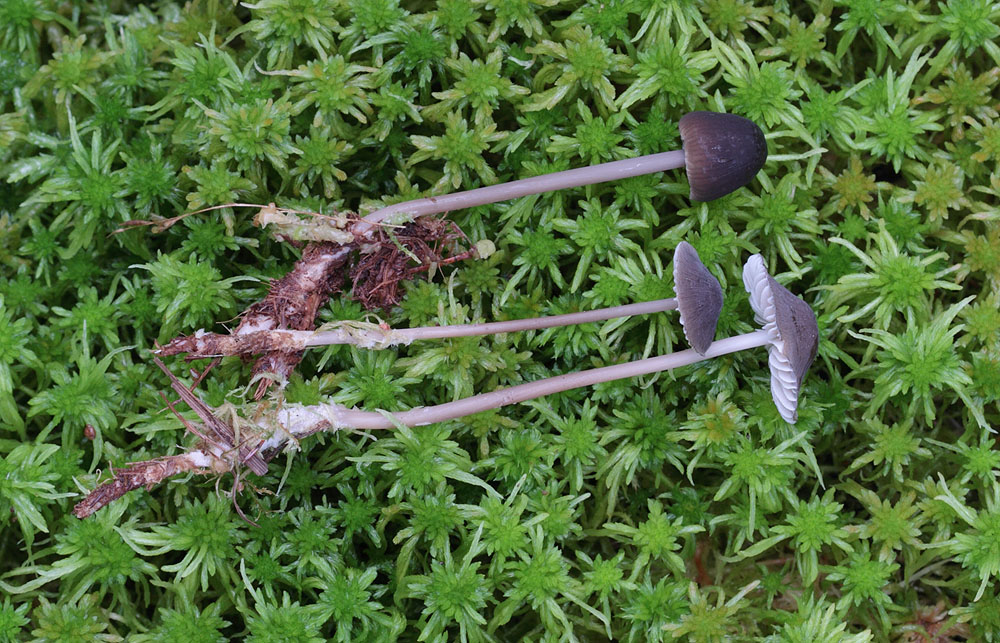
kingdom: Fungi
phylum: Basidiomycota
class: Agaricomycetes
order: Agaricales
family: Mycenaceae
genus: Mycena
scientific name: Mycena megaspora
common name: brusk-huesvamp
